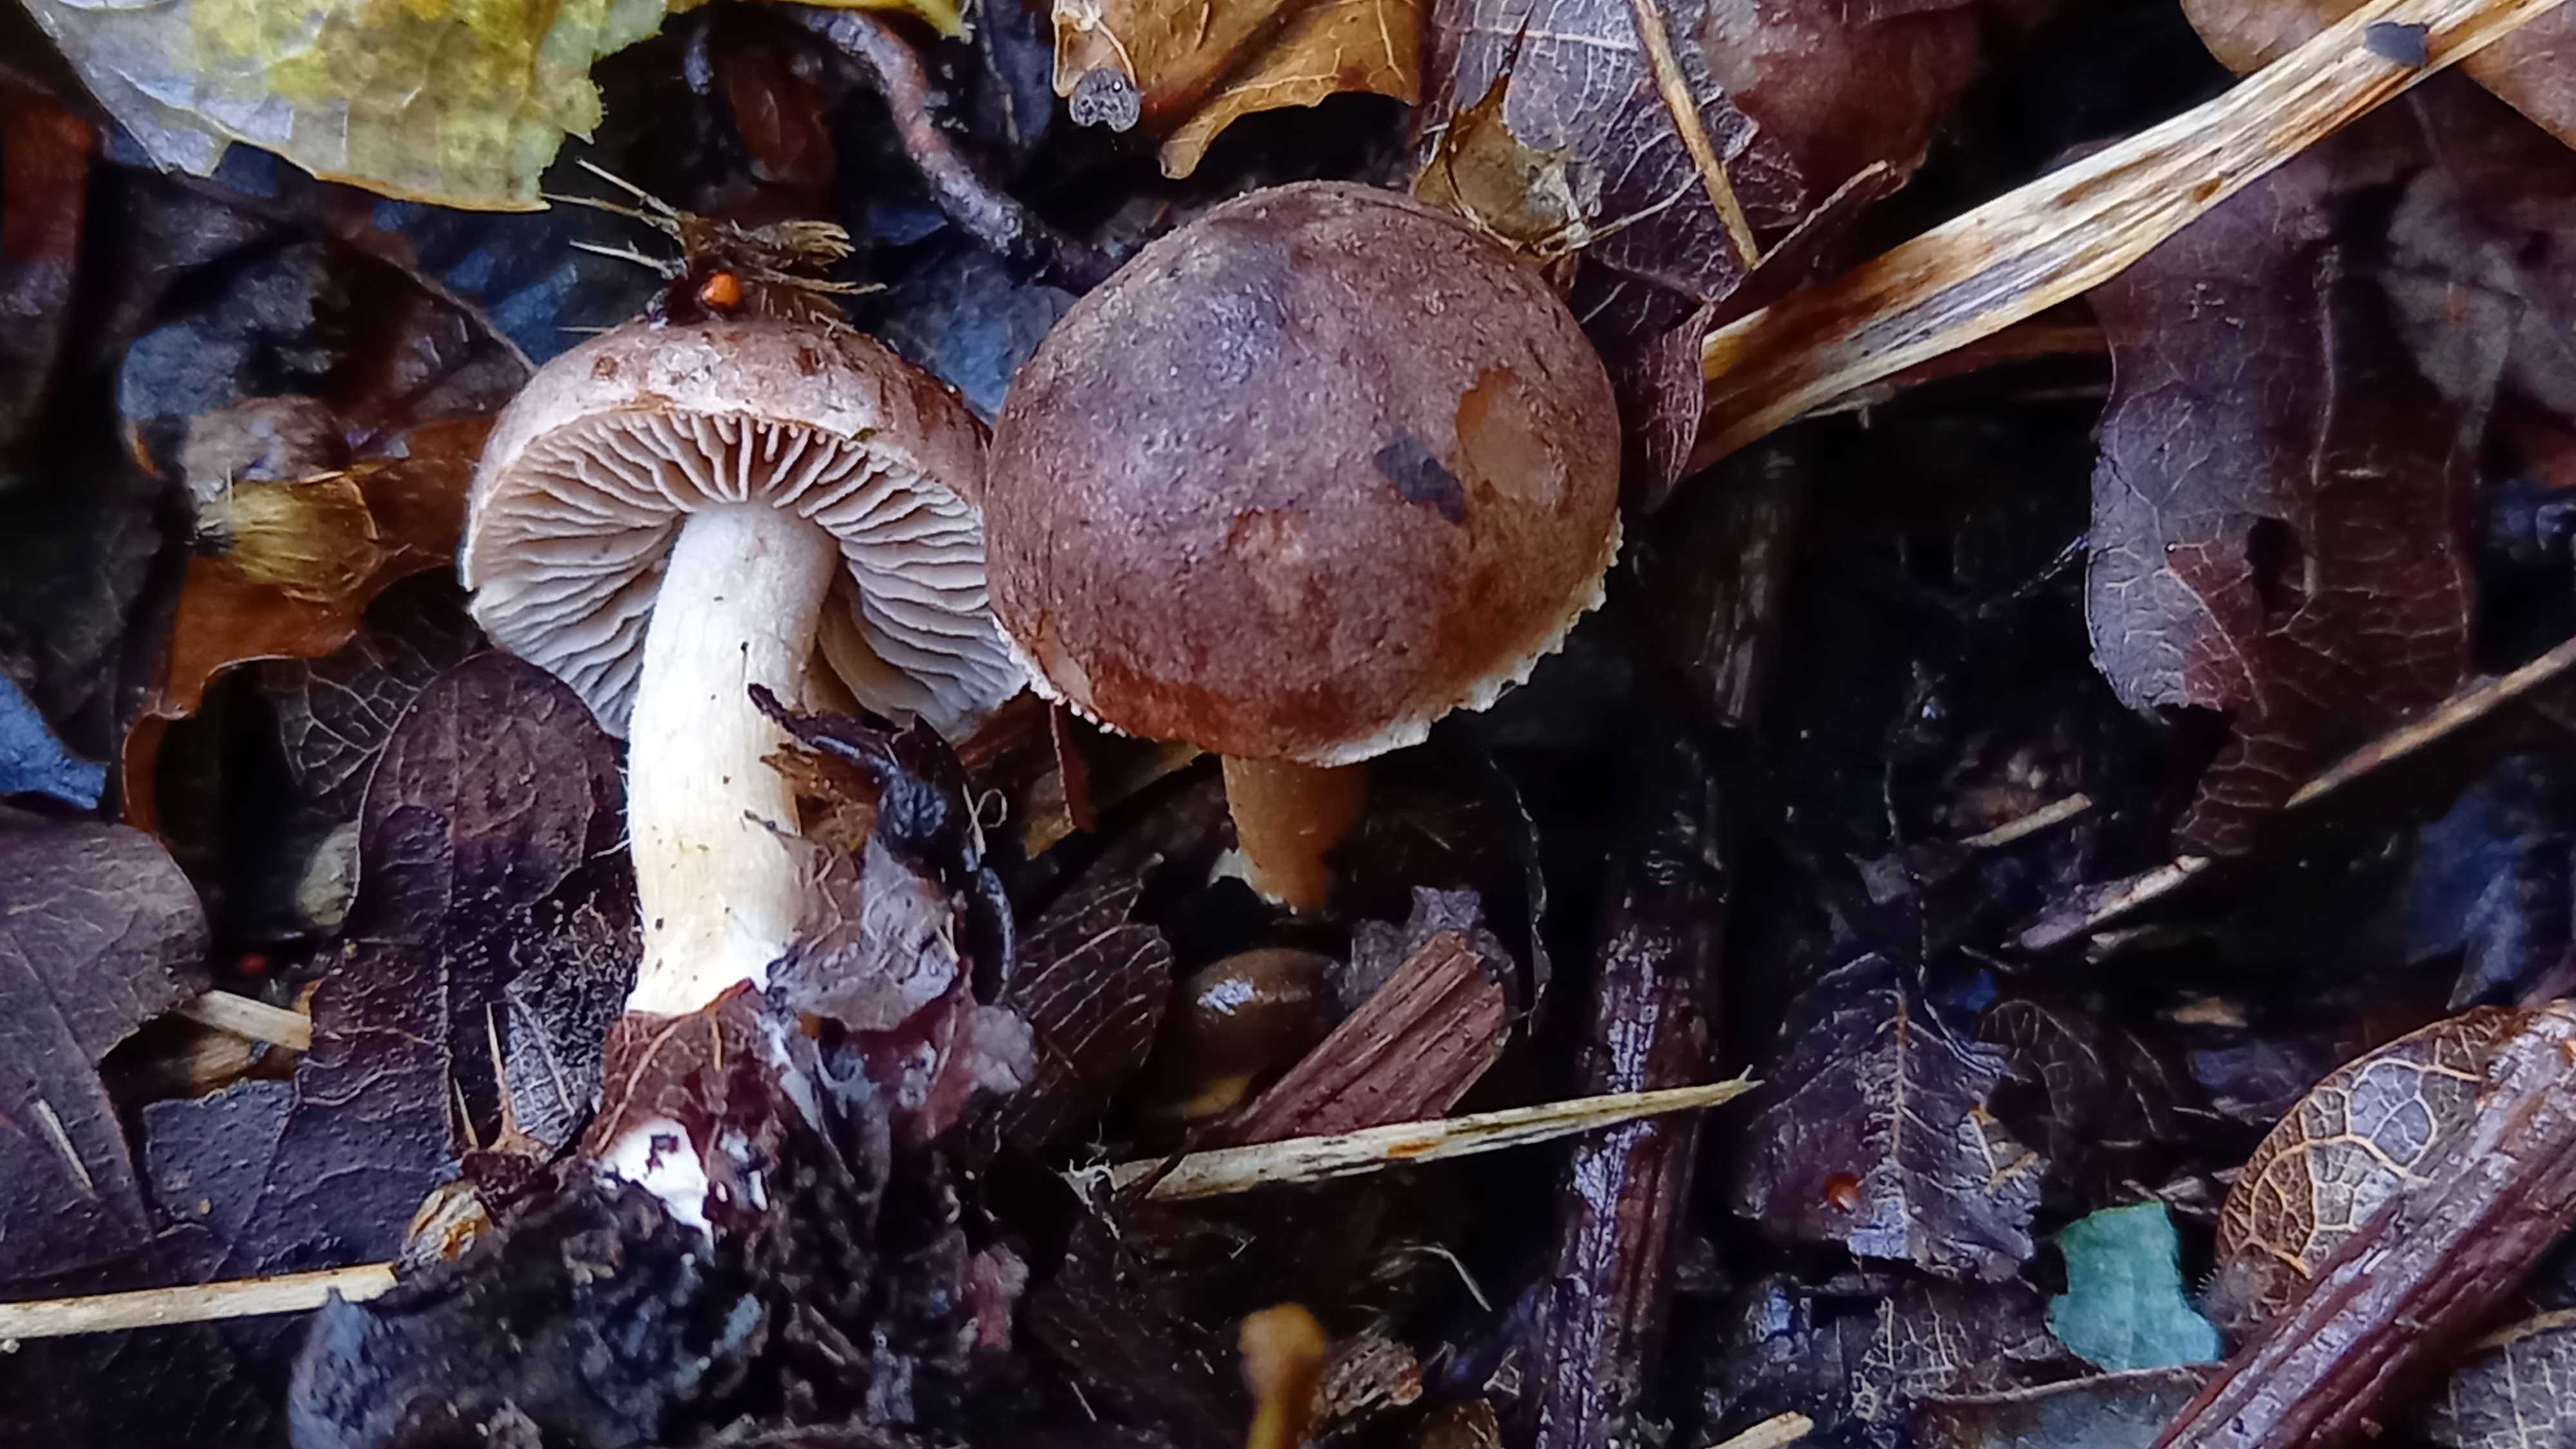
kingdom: Fungi
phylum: Basidiomycota
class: Agaricomycetes
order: Agaricales
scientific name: Agaricales
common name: champignonordenen
